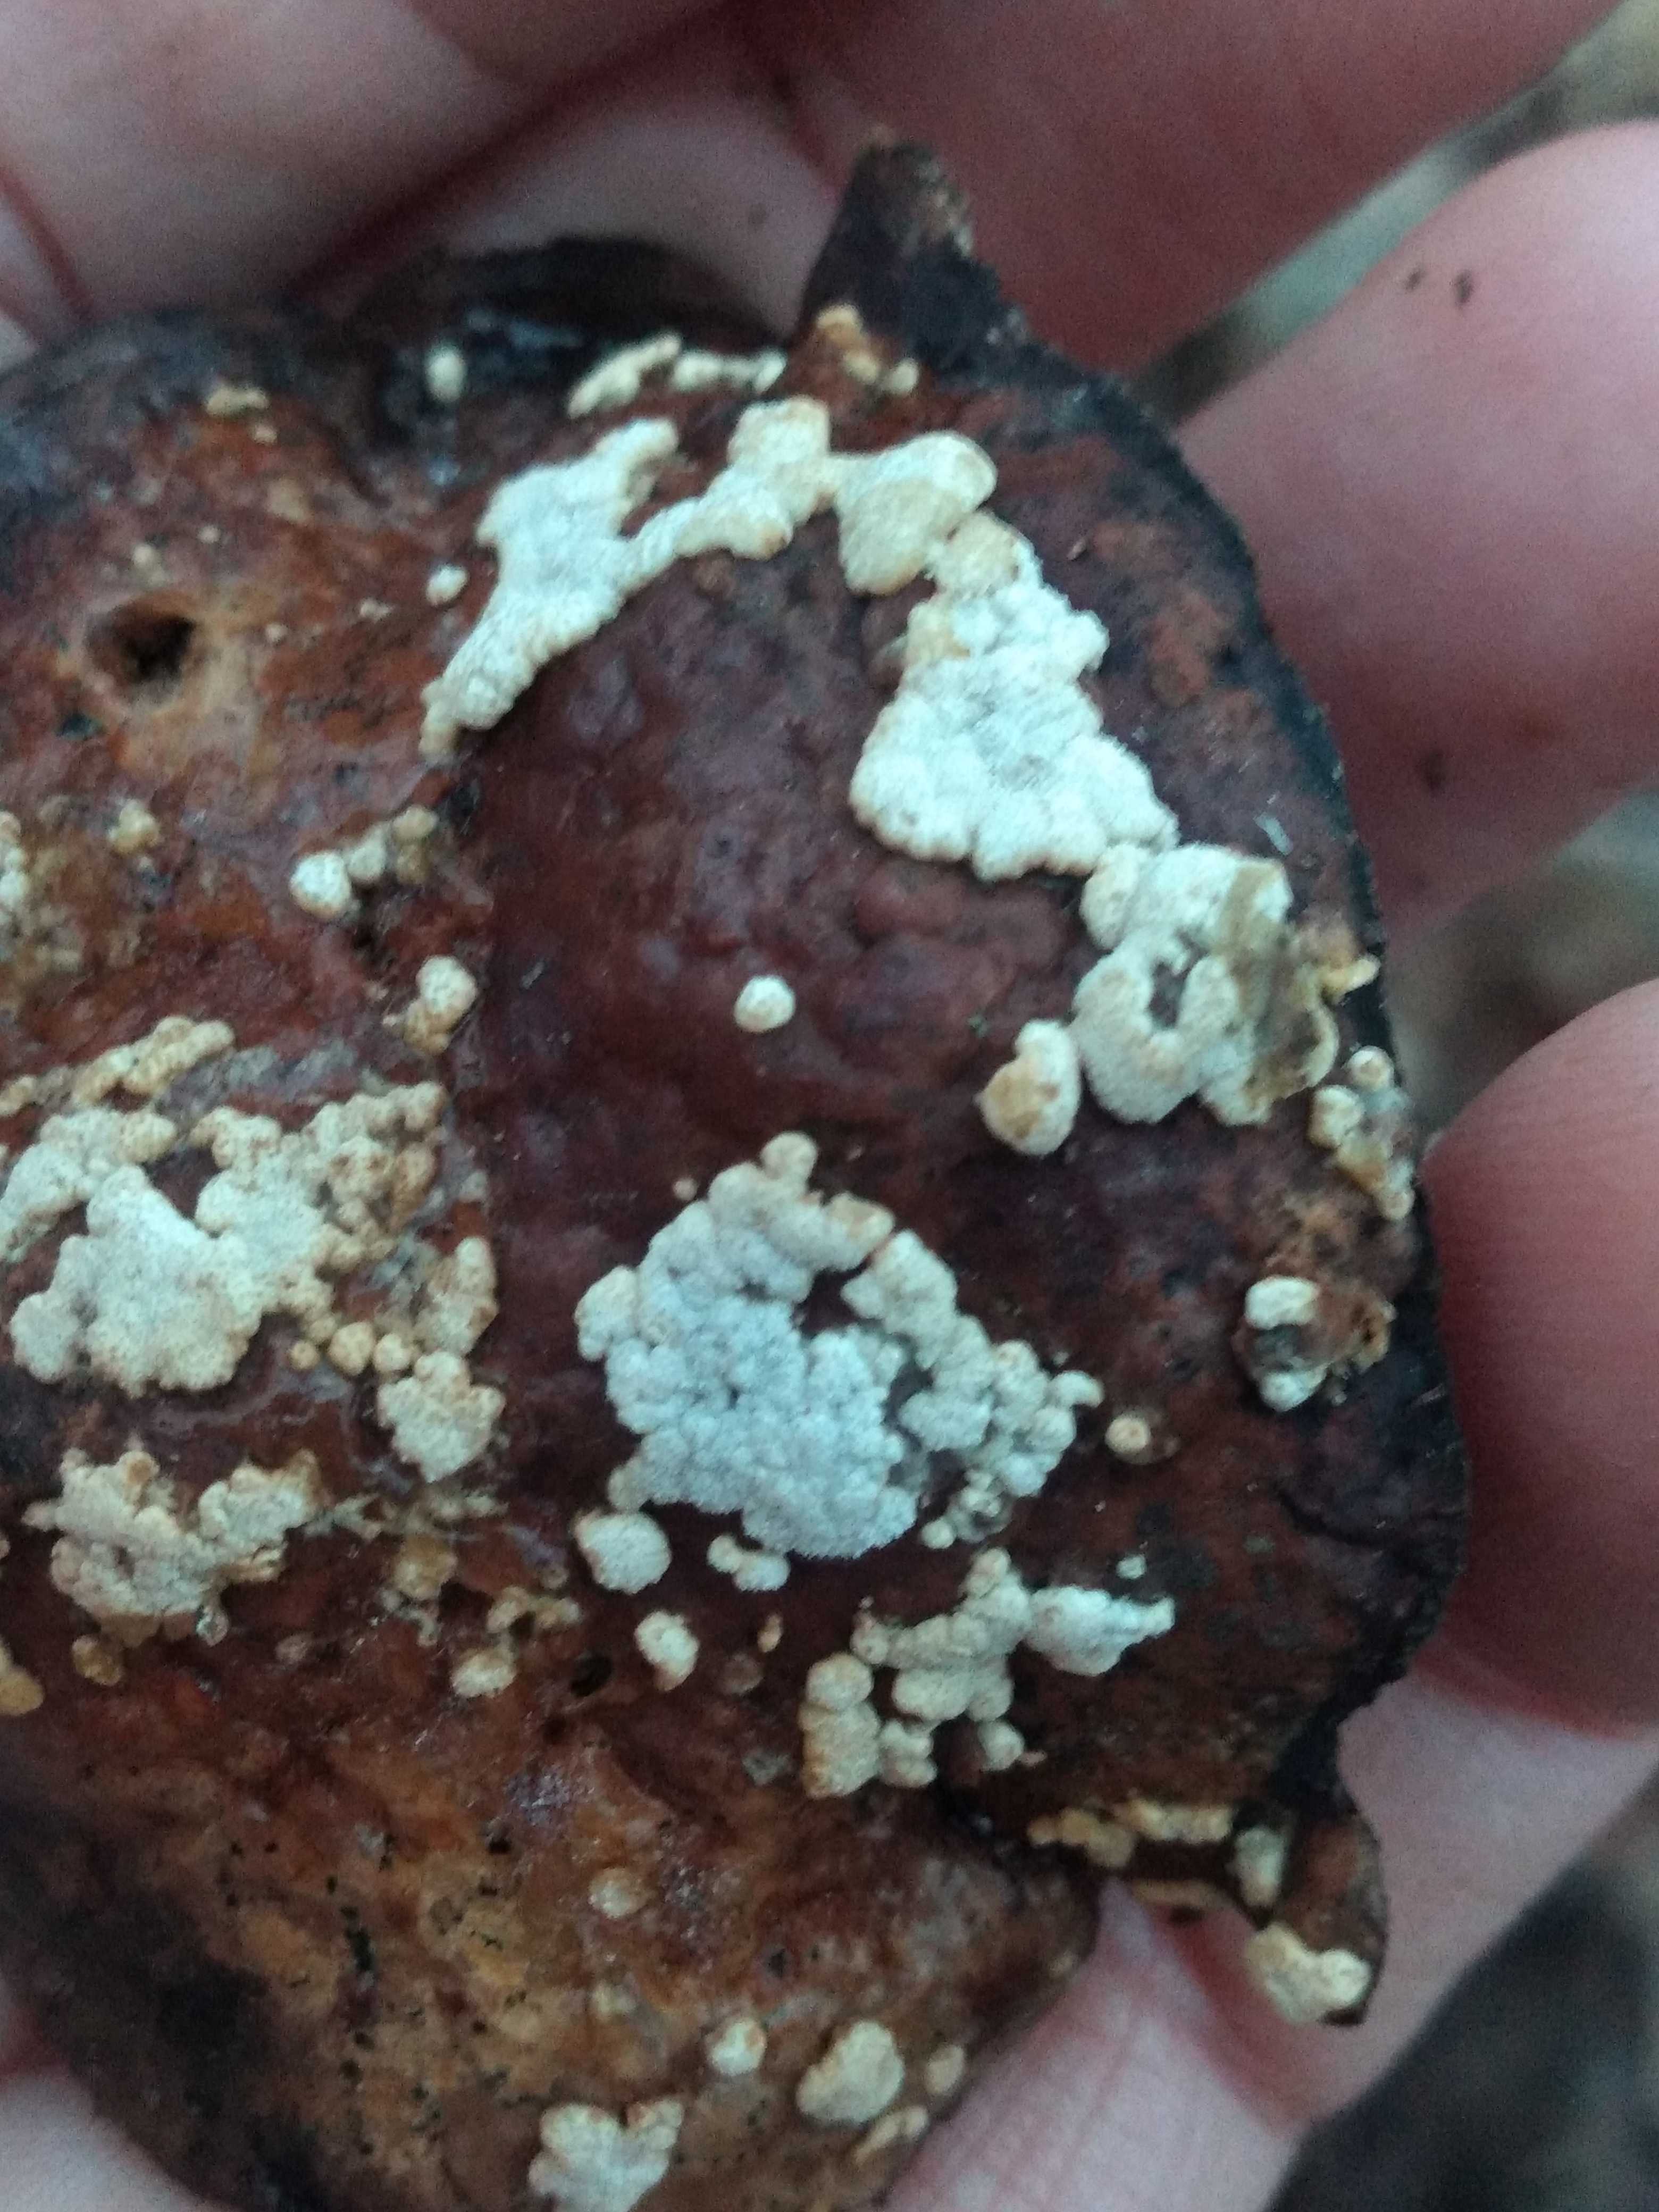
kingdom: Fungi
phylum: Ascomycota
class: Sordariomycetes
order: Hypocreales
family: Hypocreaceae
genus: Trichoderma
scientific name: Trichoderma pulvinatum
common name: snyltende kødkerne
